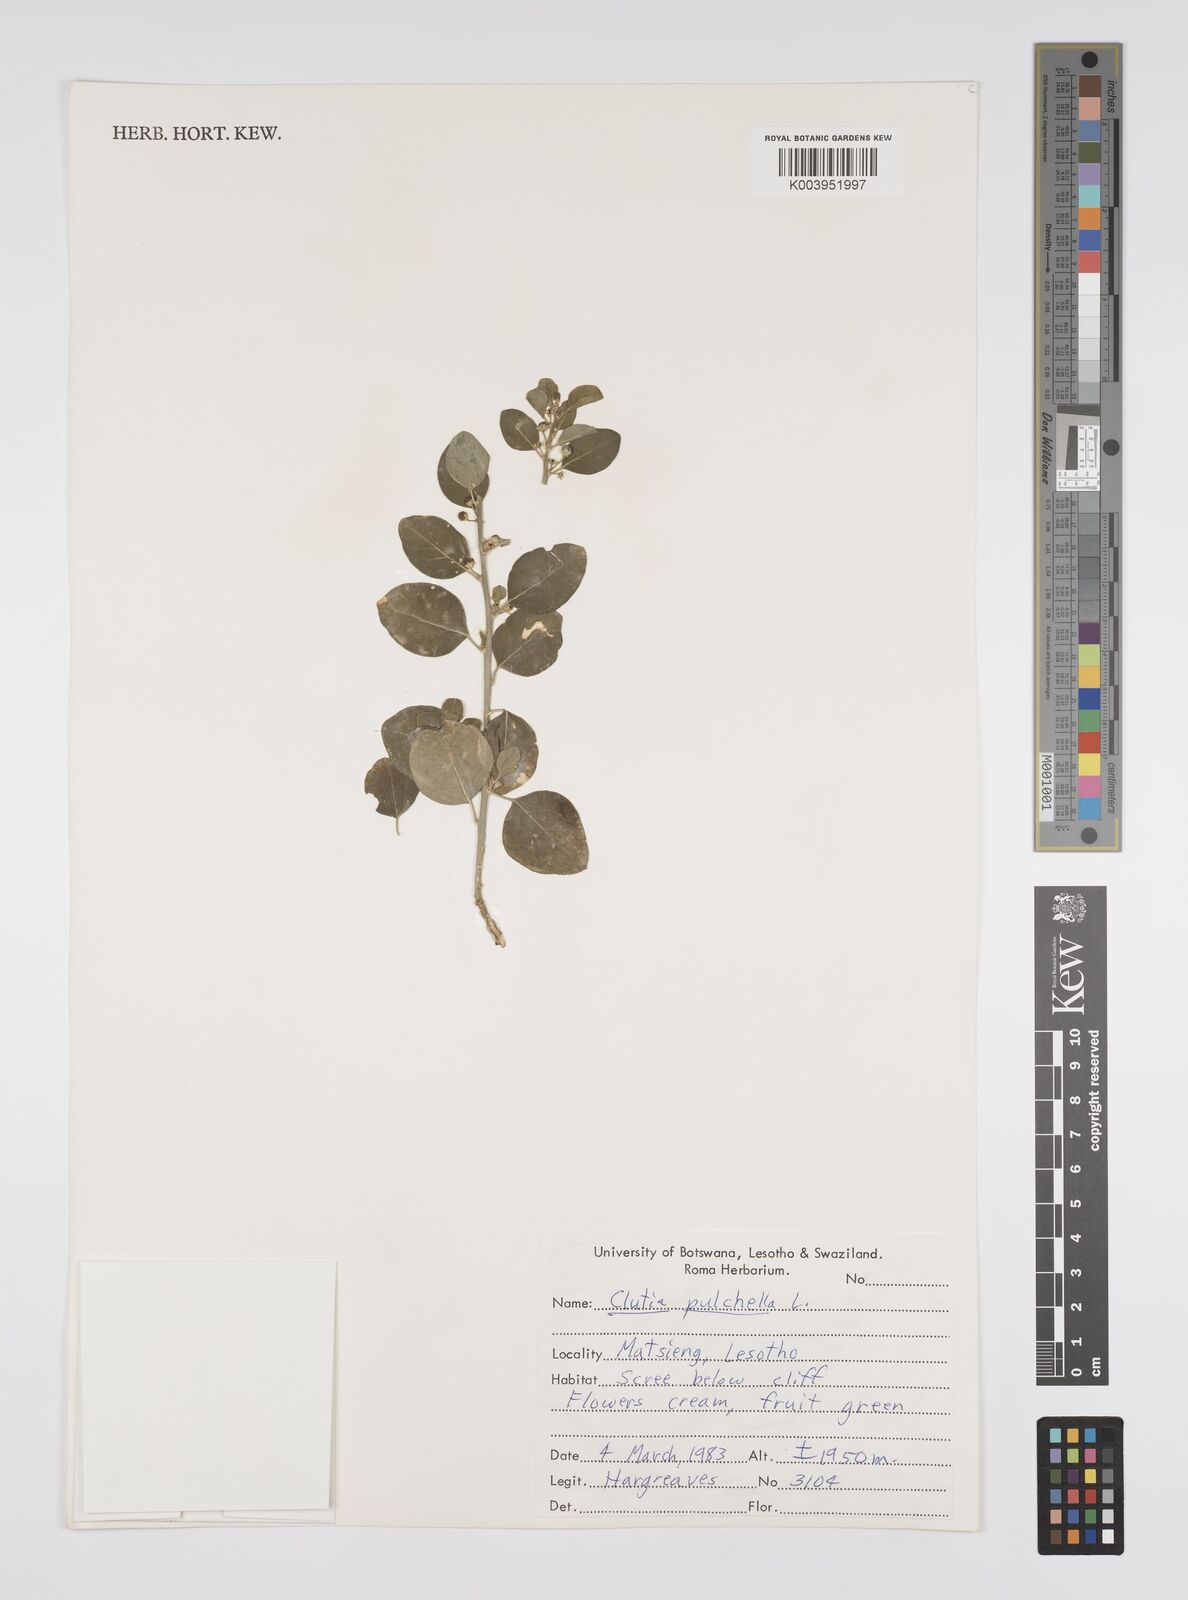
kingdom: Plantae
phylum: Tracheophyta
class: Magnoliopsida
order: Malpighiales
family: Peraceae
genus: Clutia
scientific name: Clutia pulchella
